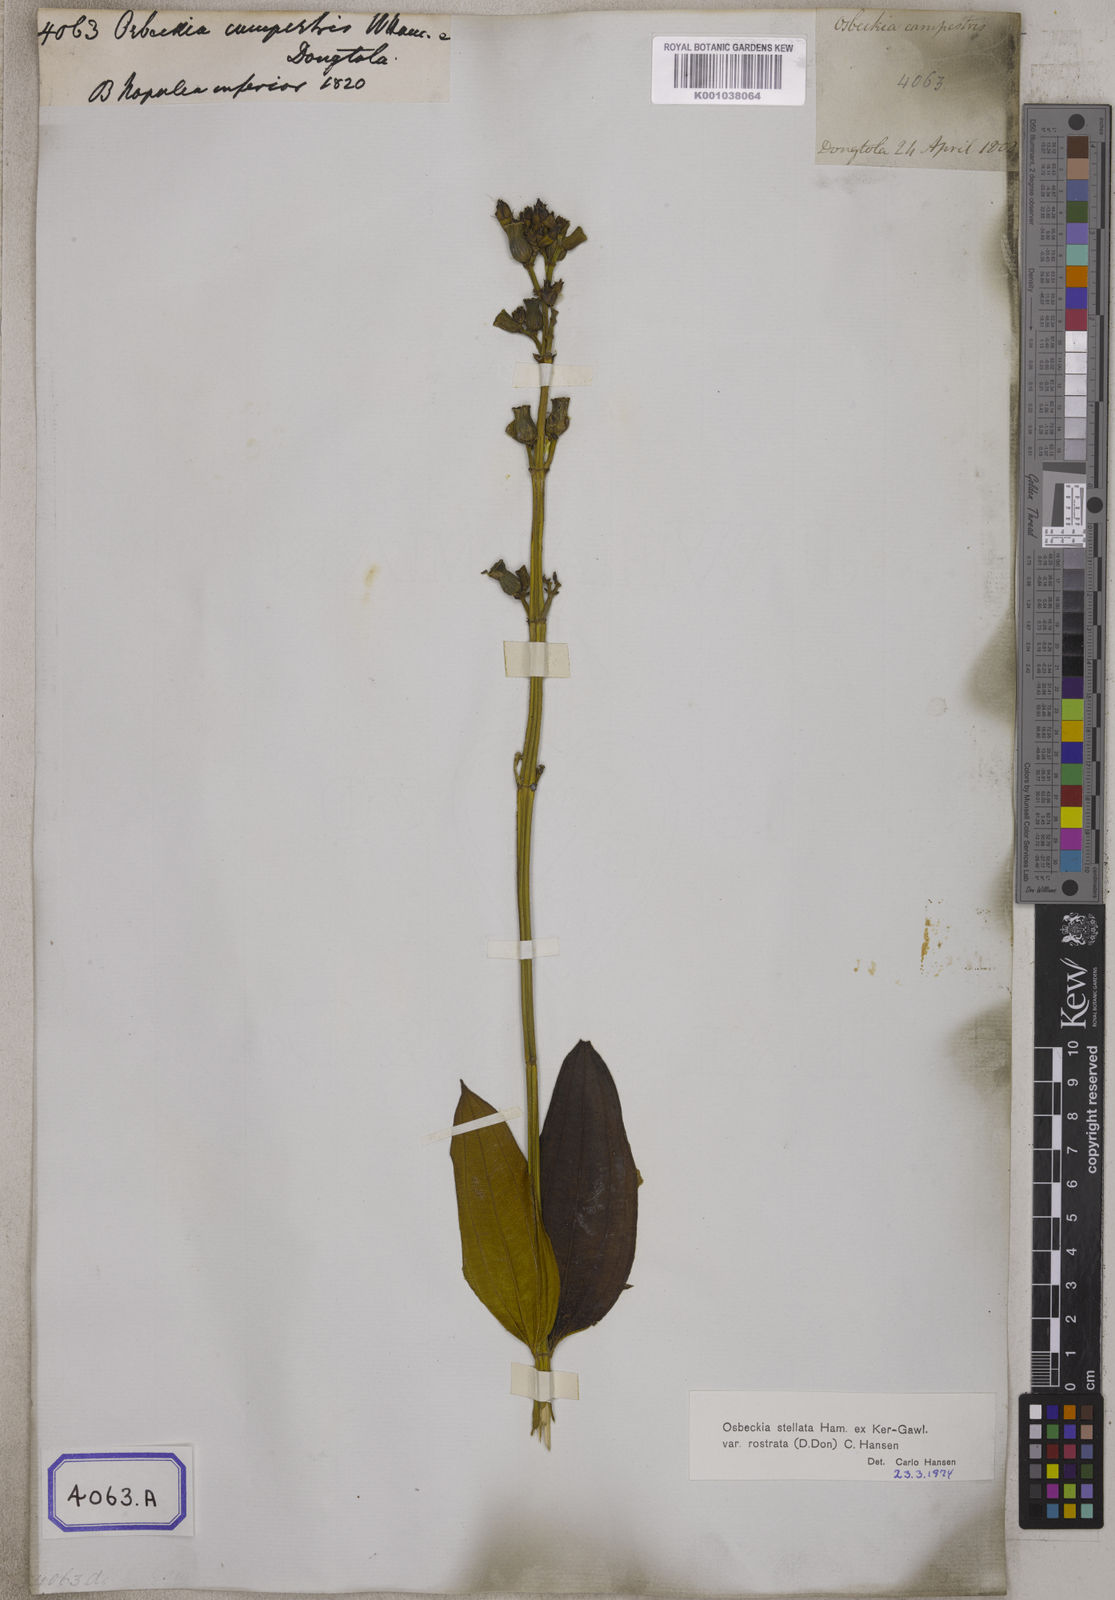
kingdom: Plantae
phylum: Tracheophyta
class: Magnoliopsida
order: Myrtales
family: Melastomataceae
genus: Osbeckia
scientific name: Osbeckia rostrata
